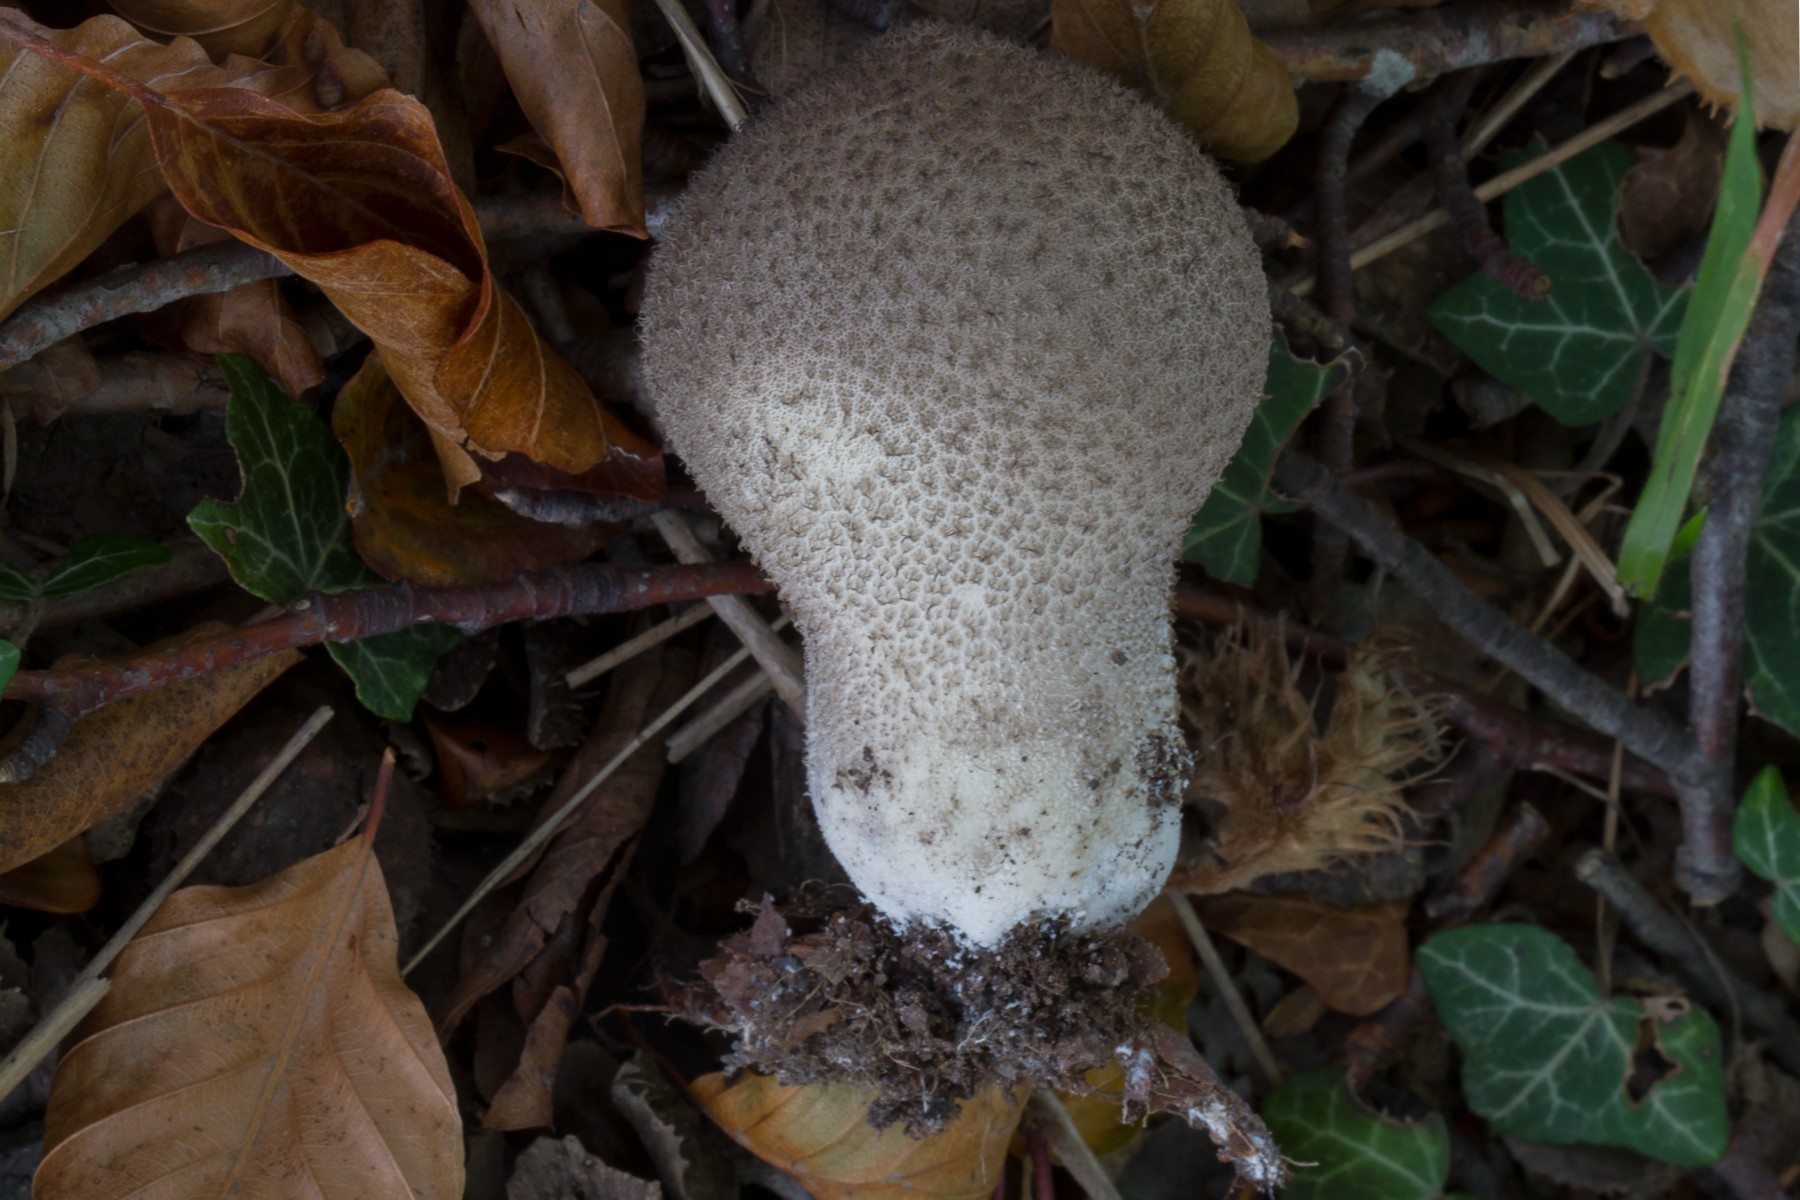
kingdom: Fungi
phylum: Basidiomycota
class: Agaricomycetes
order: Agaricales
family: Lycoperdaceae
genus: Lycoperdon
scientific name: Lycoperdon atropurpureum
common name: Dark-spored puffball
